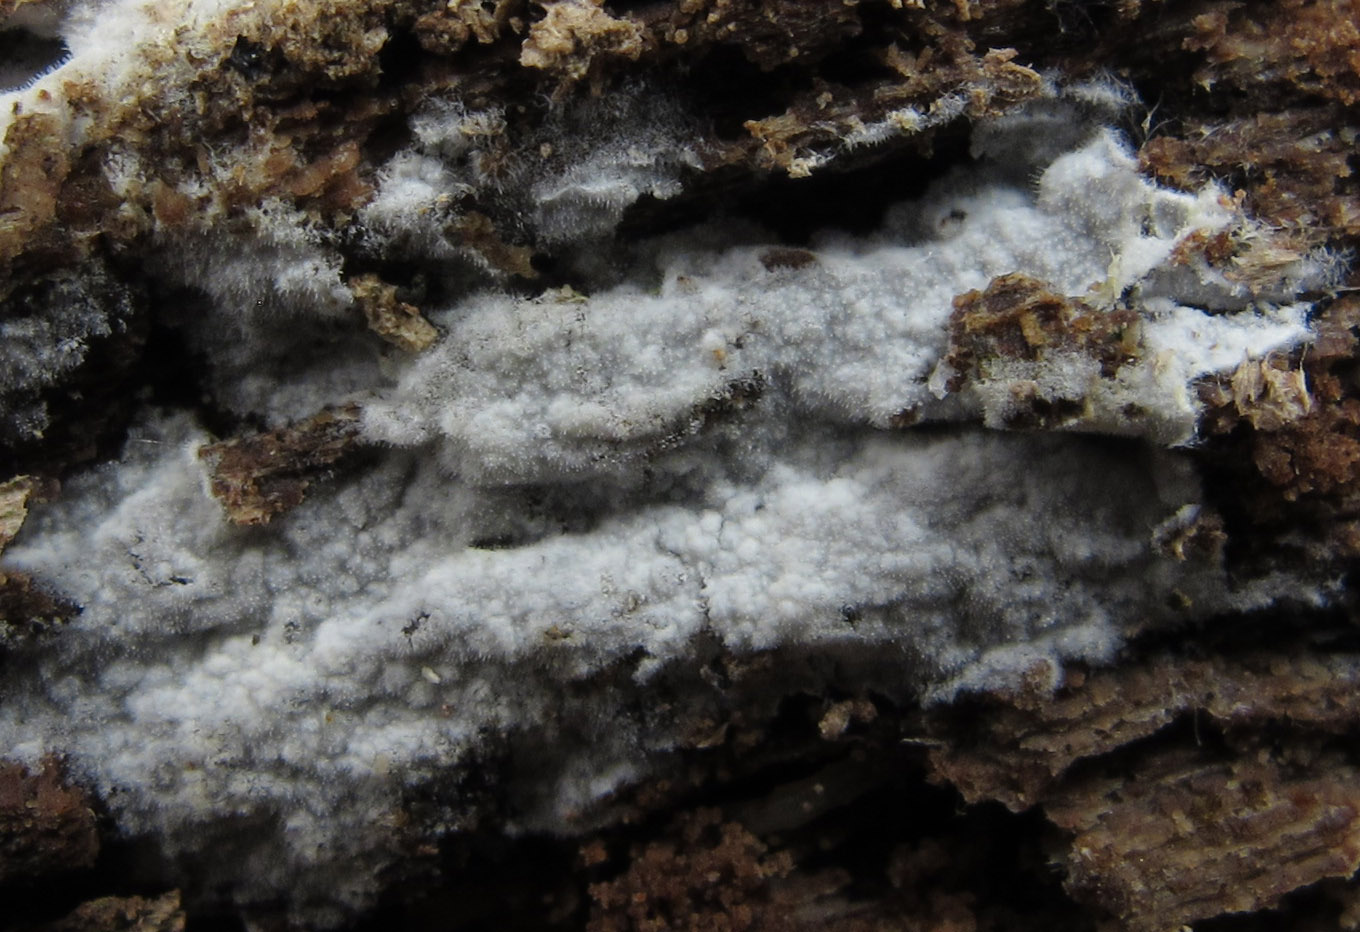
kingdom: Fungi
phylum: Basidiomycota
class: Agaricomycetes
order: Polyporales
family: Meruliaceae
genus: Gyrophanopsis
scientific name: Gyrophanopsis polonensis
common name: langhåret kalkskind
